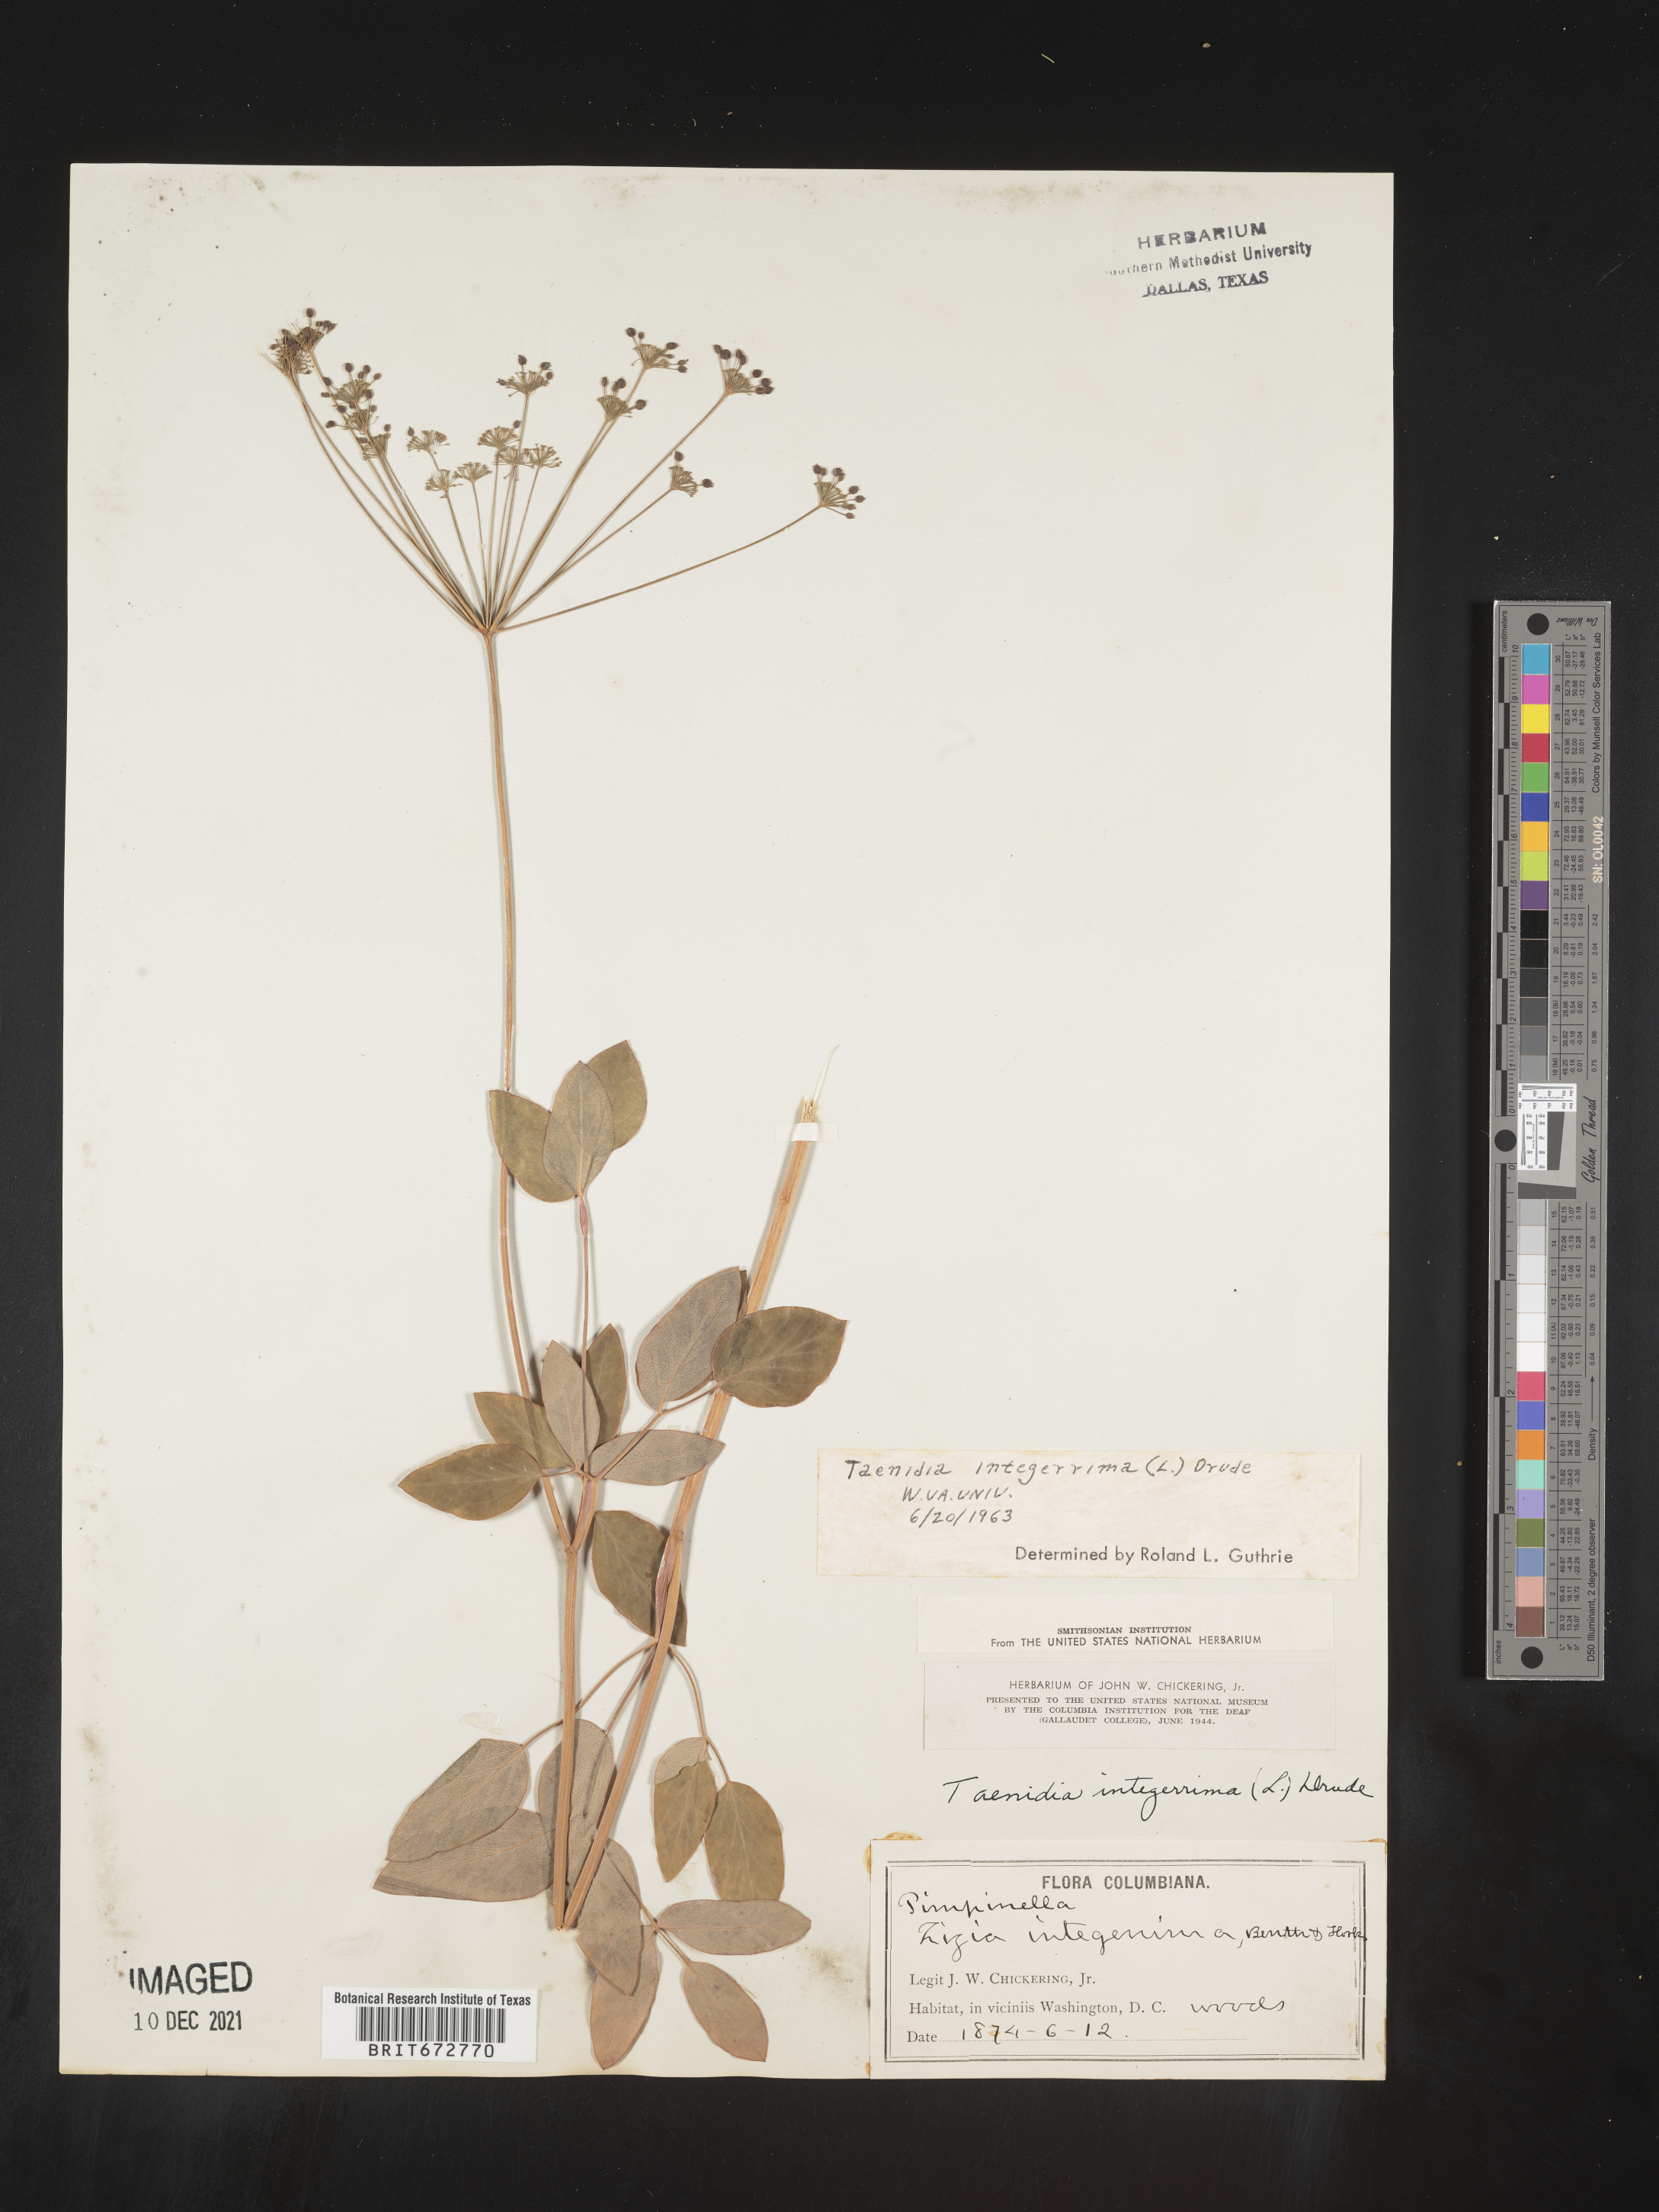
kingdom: Plantae
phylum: Tracheophyta
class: Magnoliopsida
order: Apiales
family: Apiaceae
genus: Taenidia
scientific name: Taenidia integerrima
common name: Golden alexander
